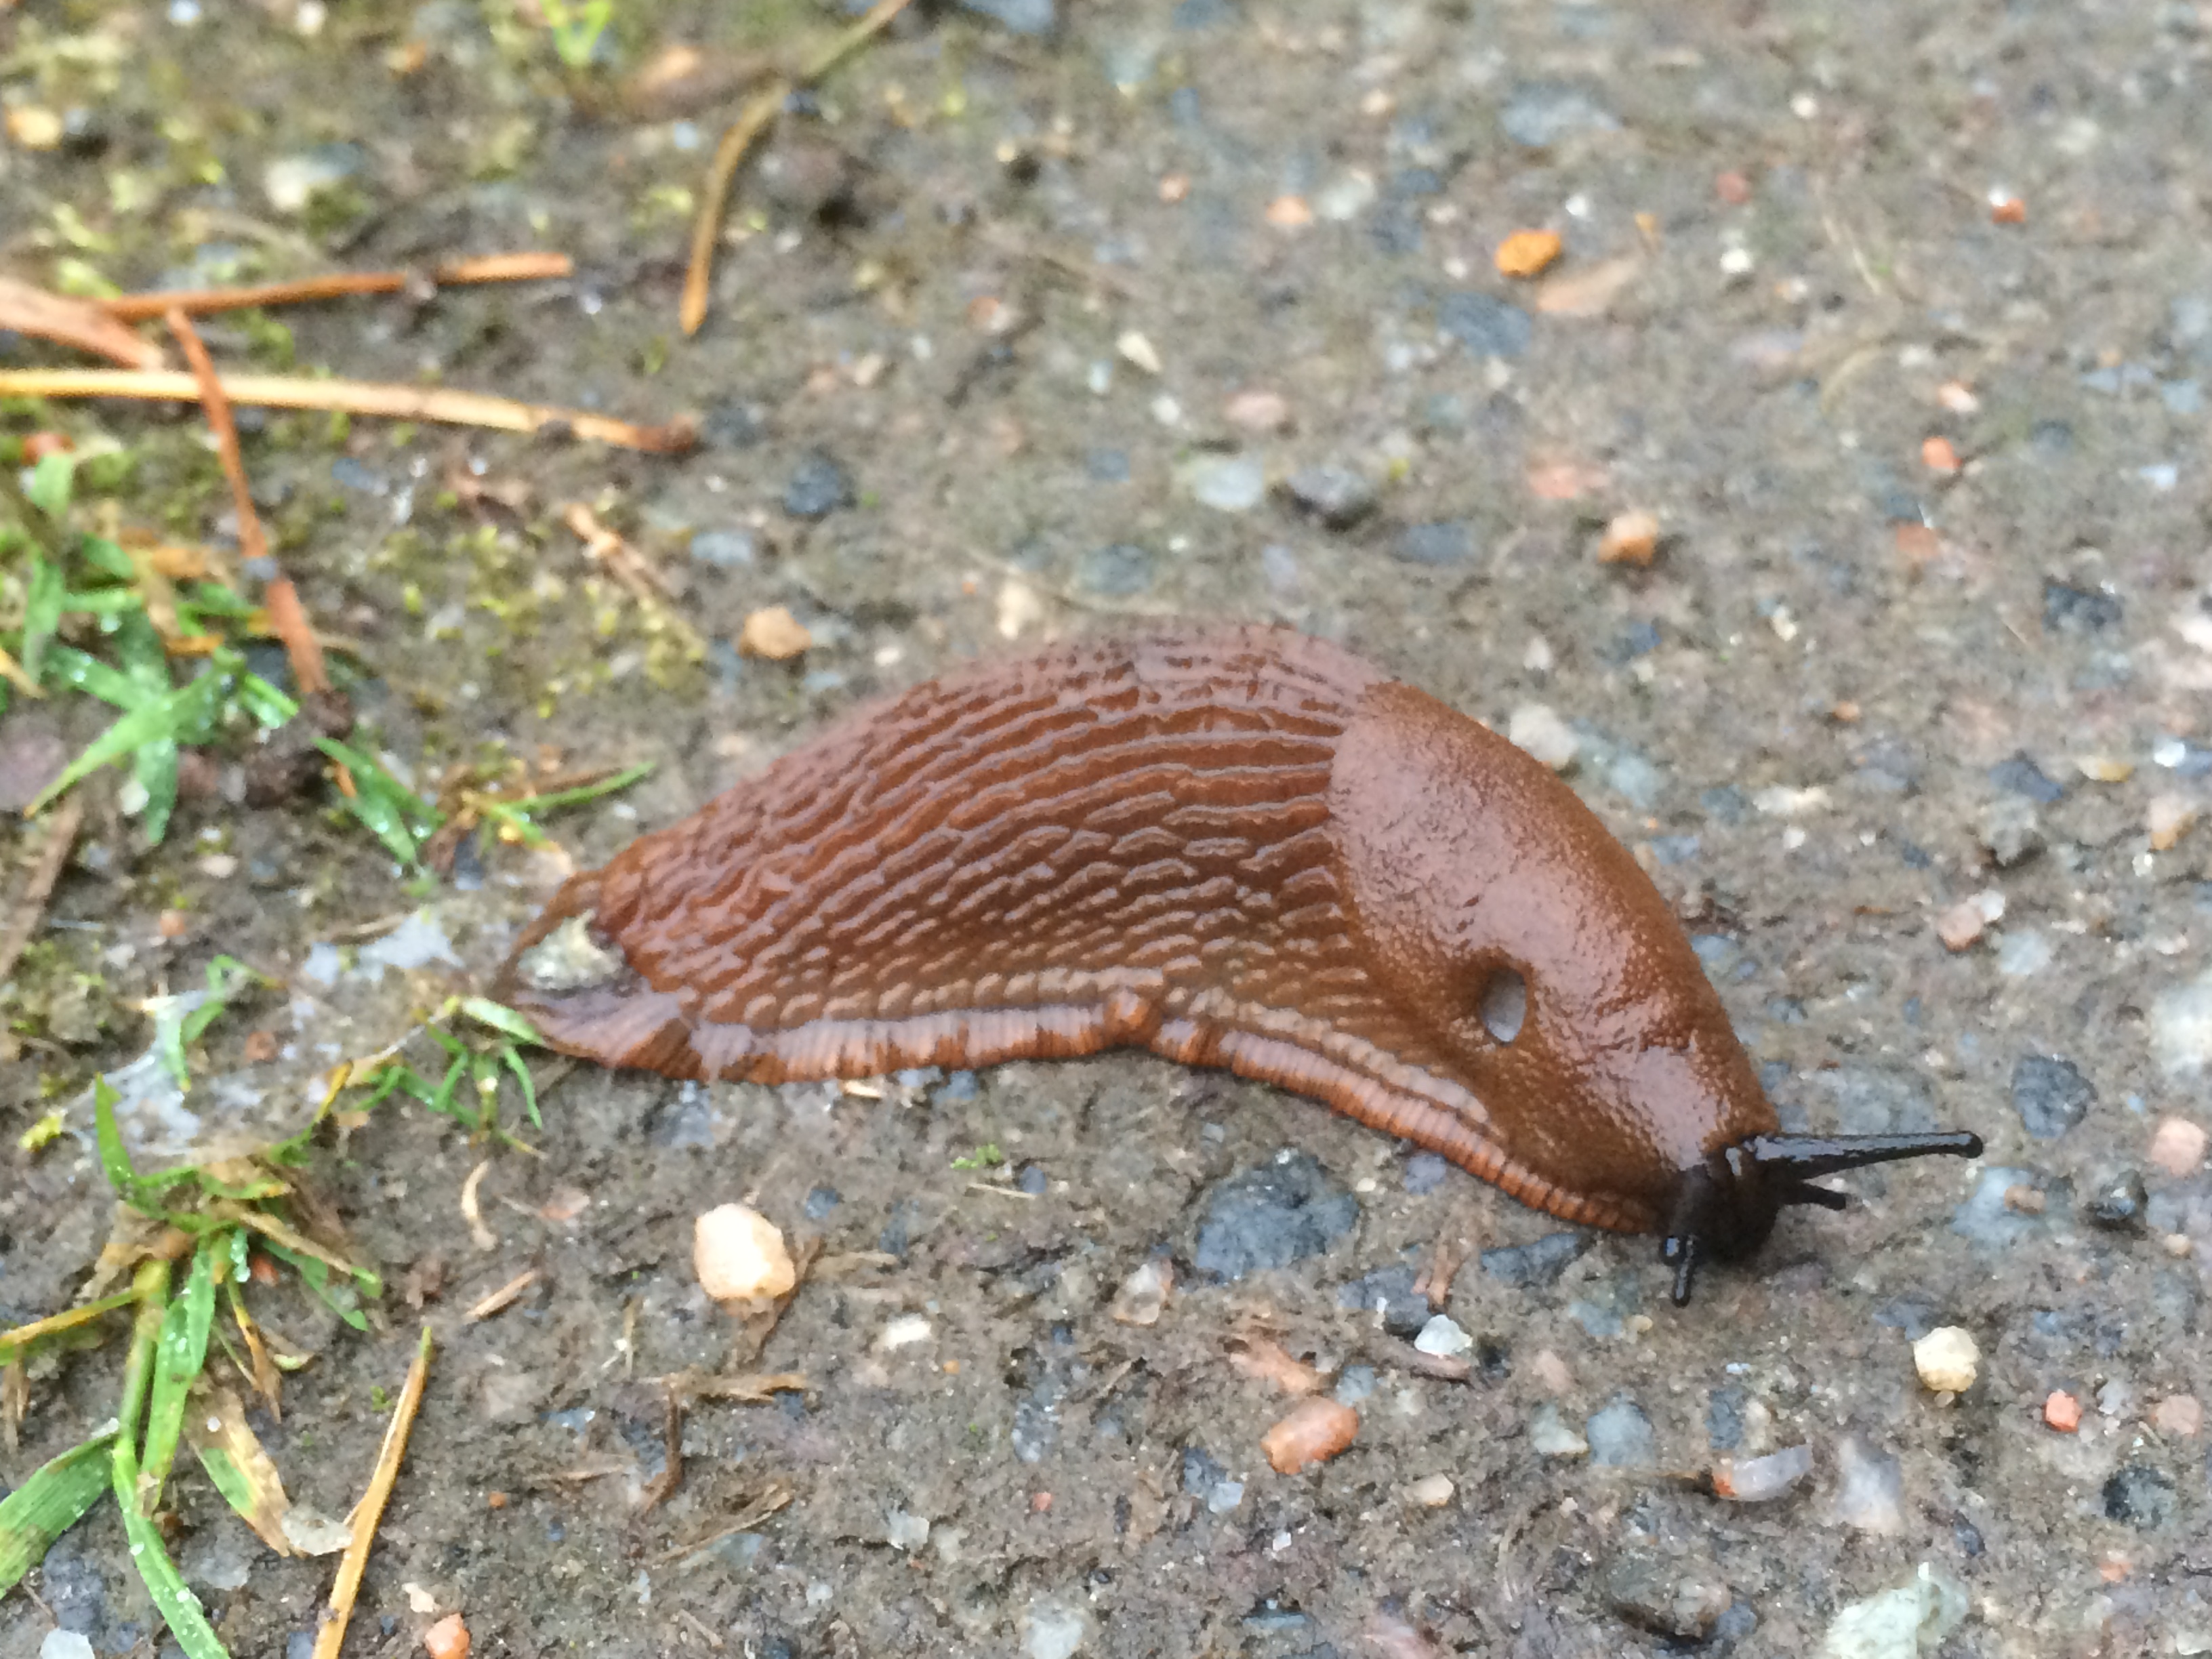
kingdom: Animalia
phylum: Mollusca
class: Gastropoda
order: Stylommatophora
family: Arionidae
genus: Arion
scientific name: Arion vulgaris
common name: Lusitanian slug
